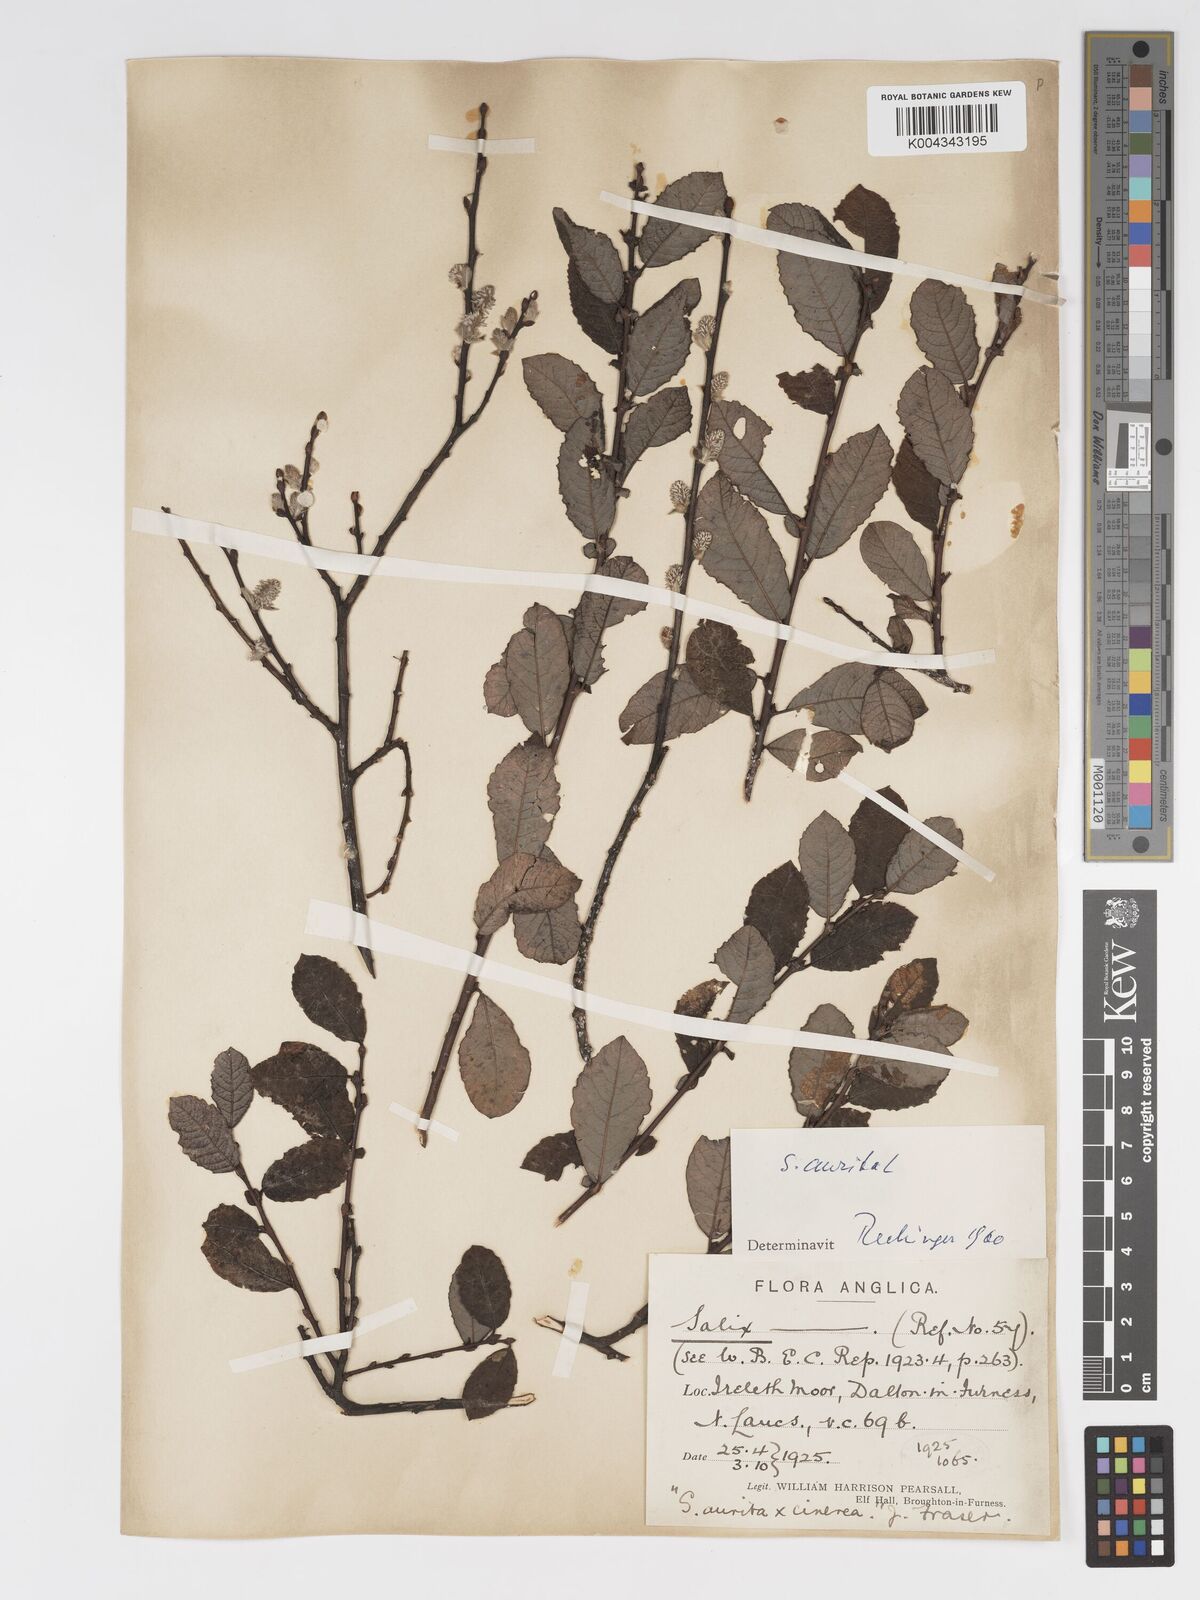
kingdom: Plantae
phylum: Tracheophyta
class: Magnoliopsida
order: Malpighiales
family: Salicaceae
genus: Salix
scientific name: Salix aurita
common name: Eared willow
